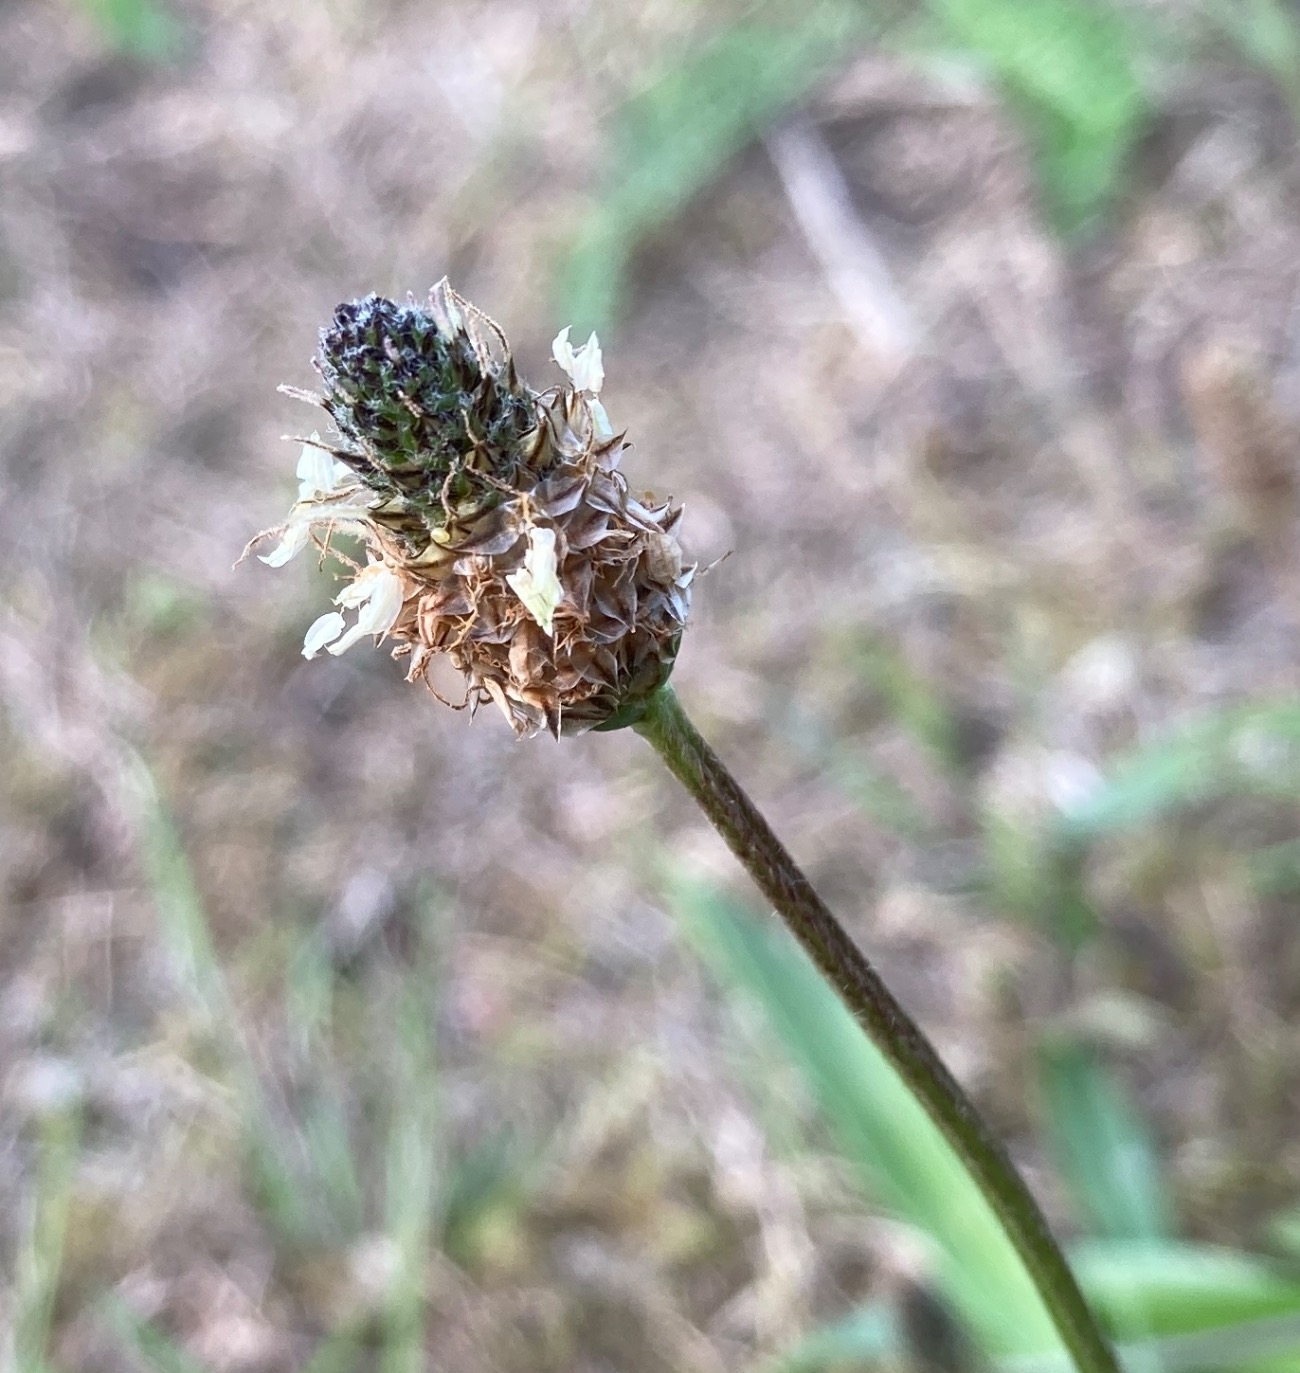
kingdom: Plantae
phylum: Tracheophyta
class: Magnoliopsida
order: Lamiales
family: Plantaginaceae
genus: Plantago
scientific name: Plantago lanceolata
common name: Lancet-vejbred
